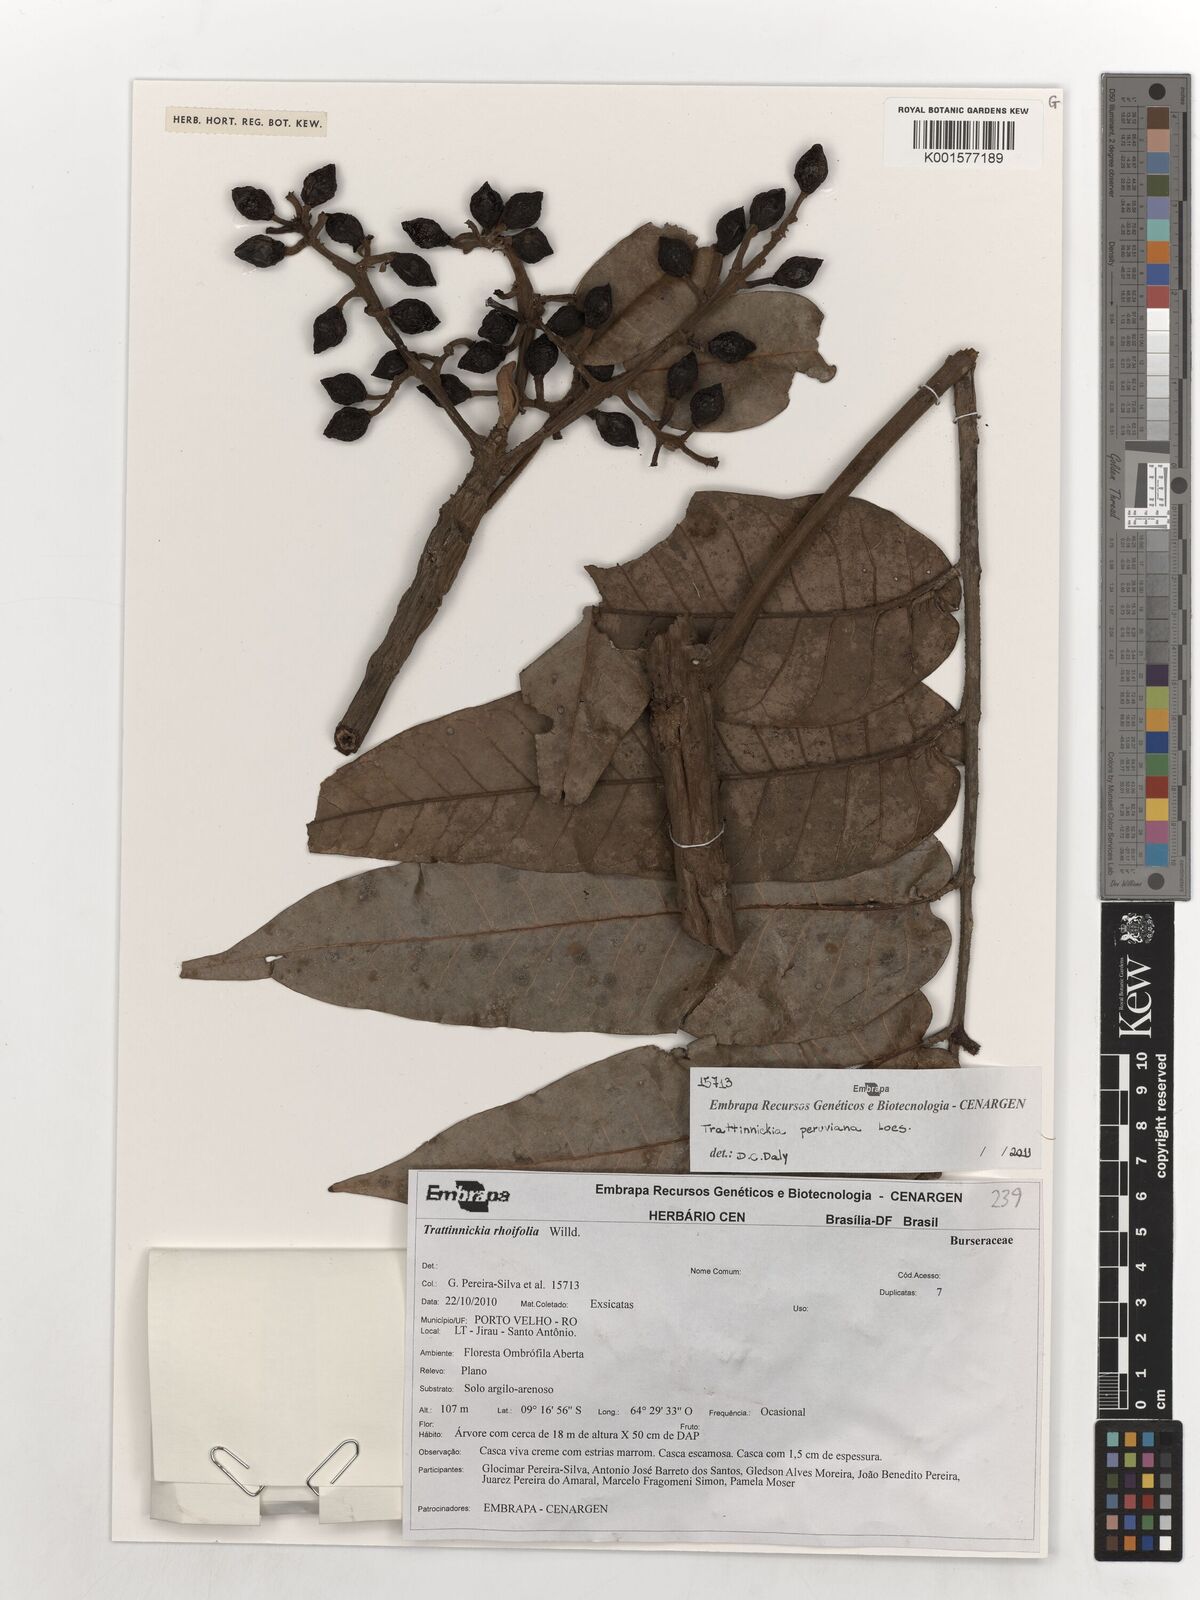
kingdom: Plantae
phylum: Tracheophyta
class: Magnoliopsida
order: Sapindales
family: Burseraceae
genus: Trattinnickia
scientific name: Trattinnickia rhoifolia
